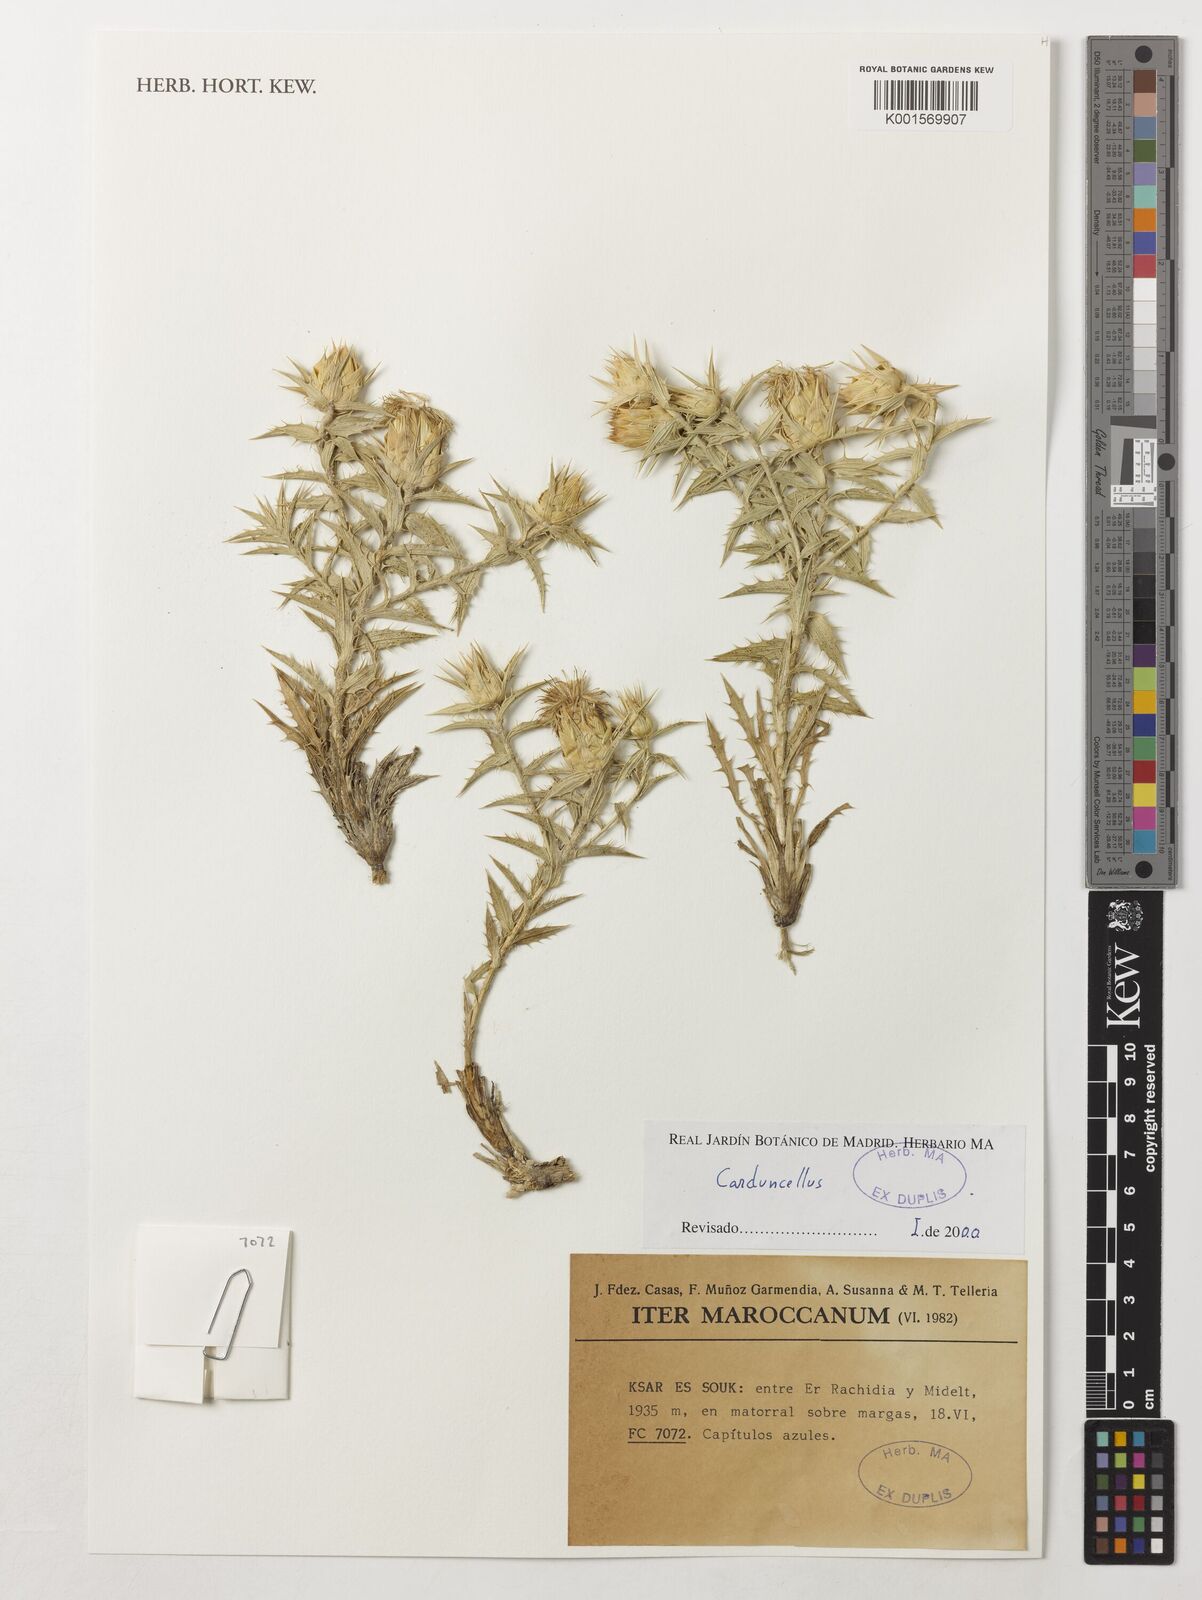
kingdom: Plantae
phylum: Tracheophyta
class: Magnoliopsida
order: Asterales
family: Asteraceae
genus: Carduncellus
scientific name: Carduncellus
